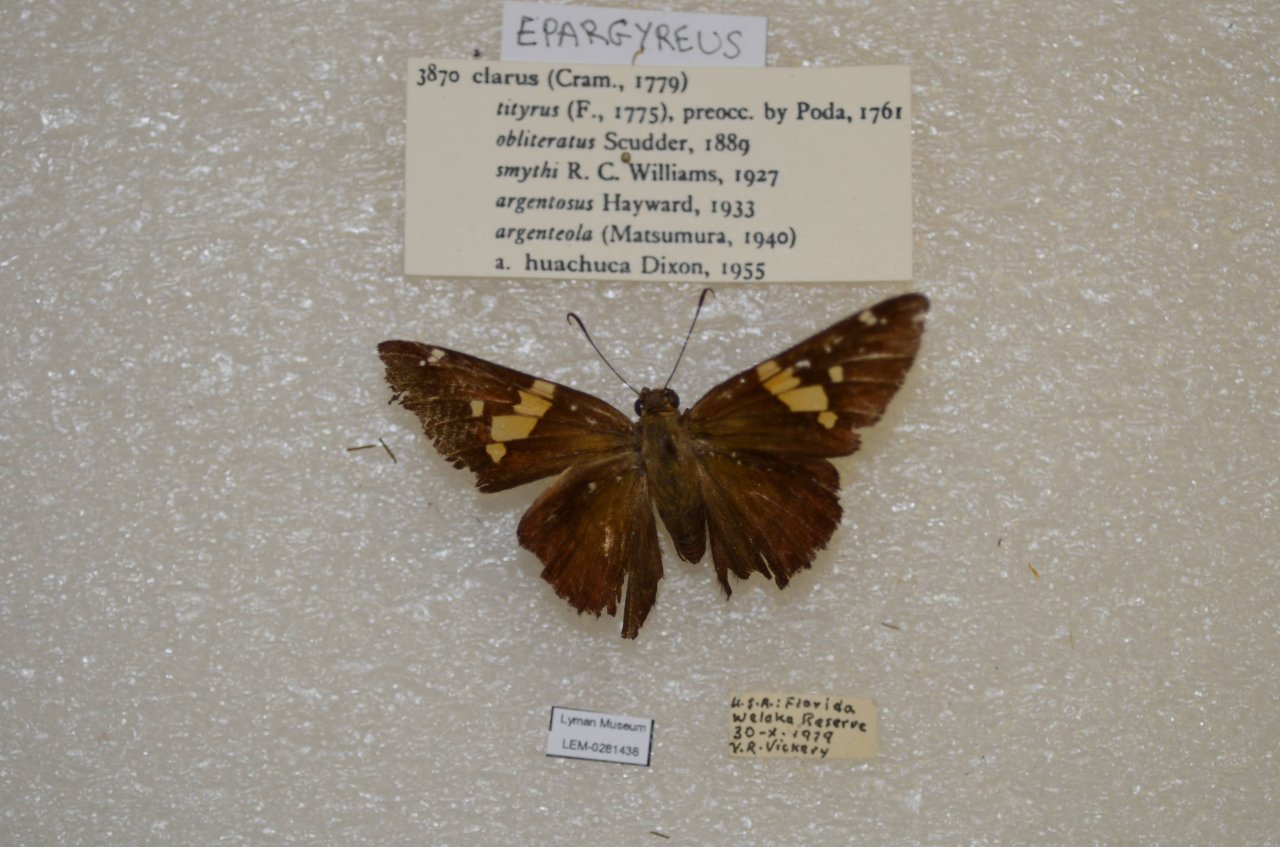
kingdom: Animalia
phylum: Arthropoda
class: Insecta
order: Lepidoptera
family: Hesperiidae
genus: Epargyreus
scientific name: Epargyreus clarus
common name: Silver-spotted Skipper
